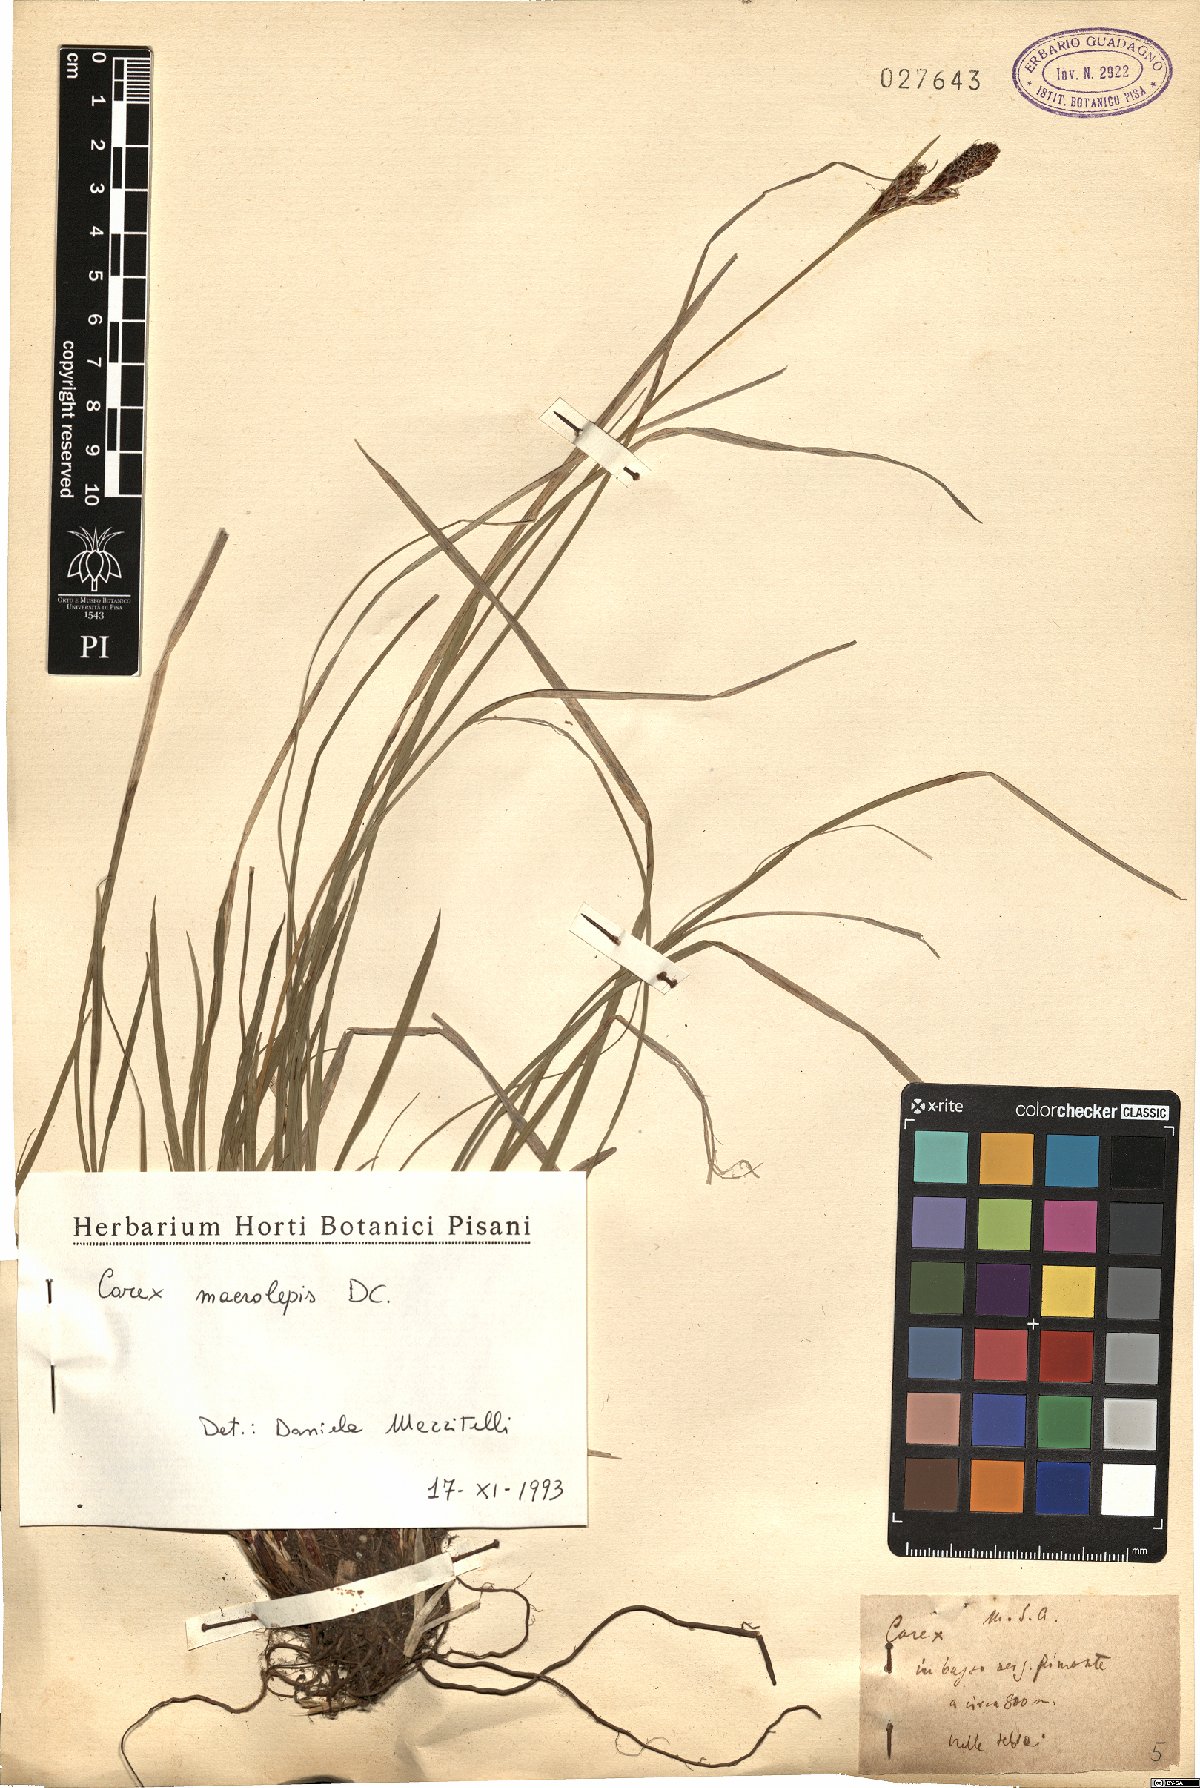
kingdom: Plantae
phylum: Tracheophyta
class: Liliopsida
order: Poales
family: Cyperaceae
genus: Carex
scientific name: Carex macrolepis
